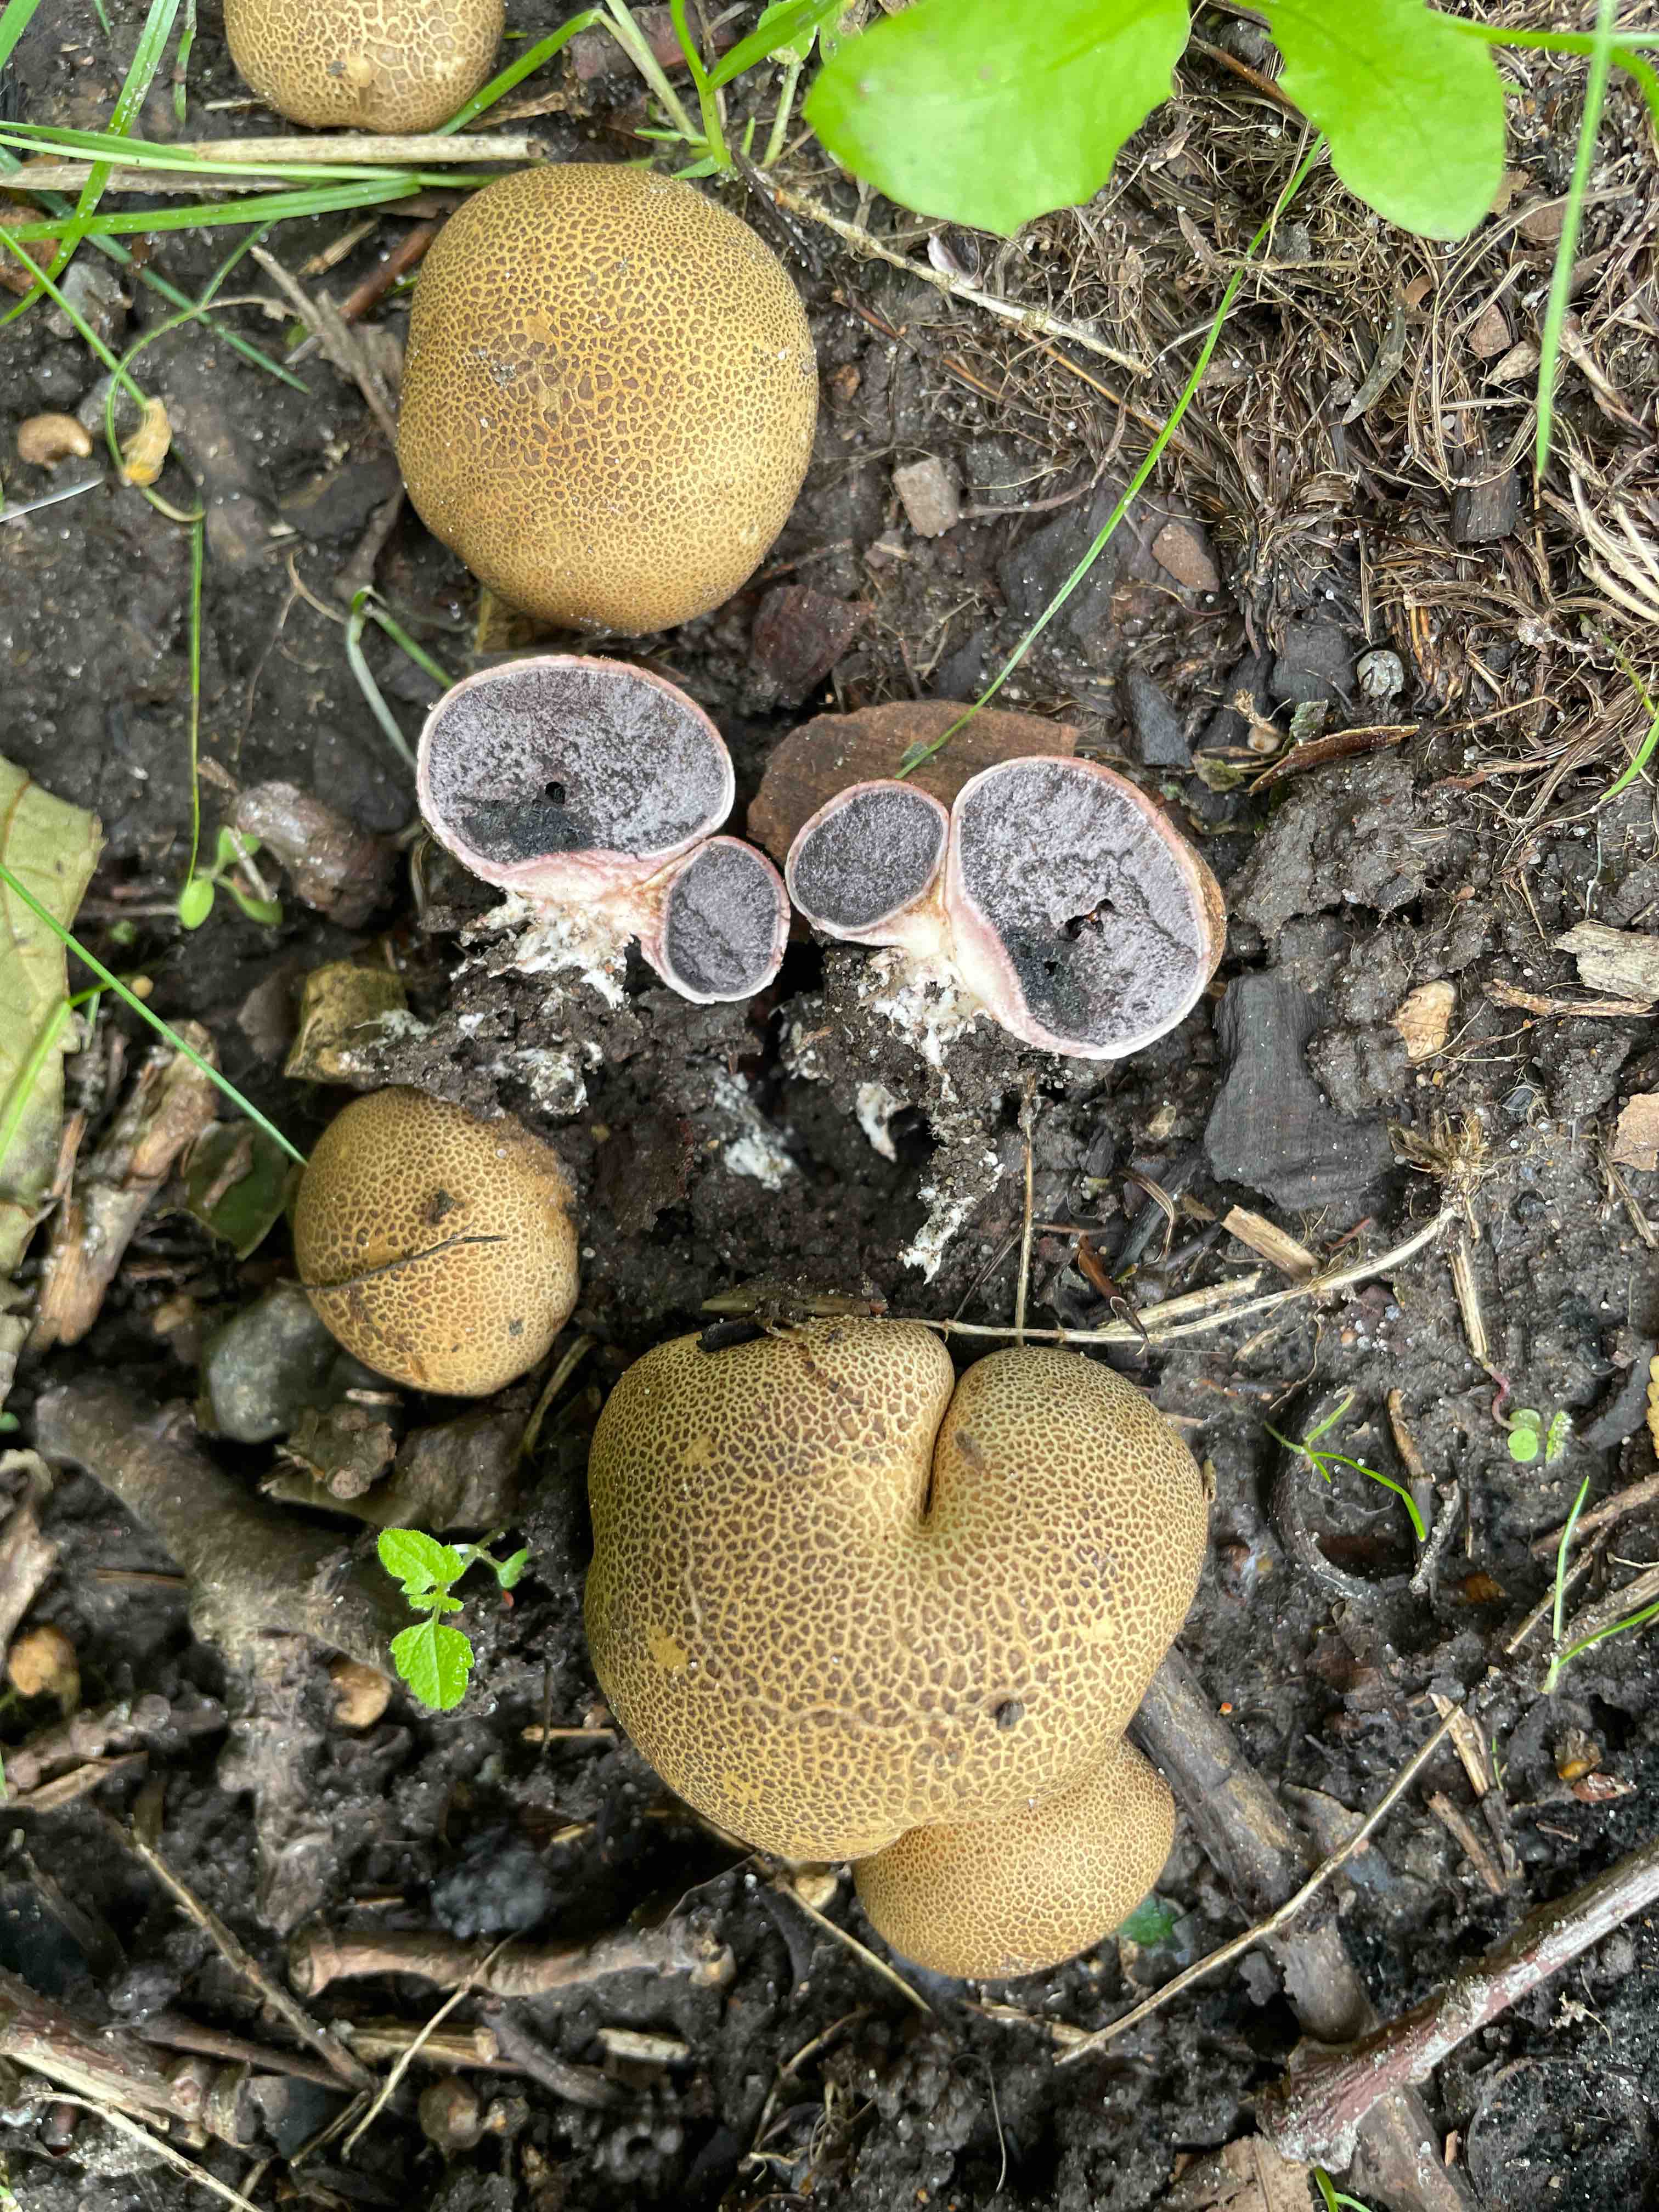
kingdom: Fungi
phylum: Basidiomycota
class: Agaricomycetes
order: Boletales
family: Sclerodermataceae
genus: Scleroderma
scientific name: Scleroderma areolatum
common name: plettet bruskbold
